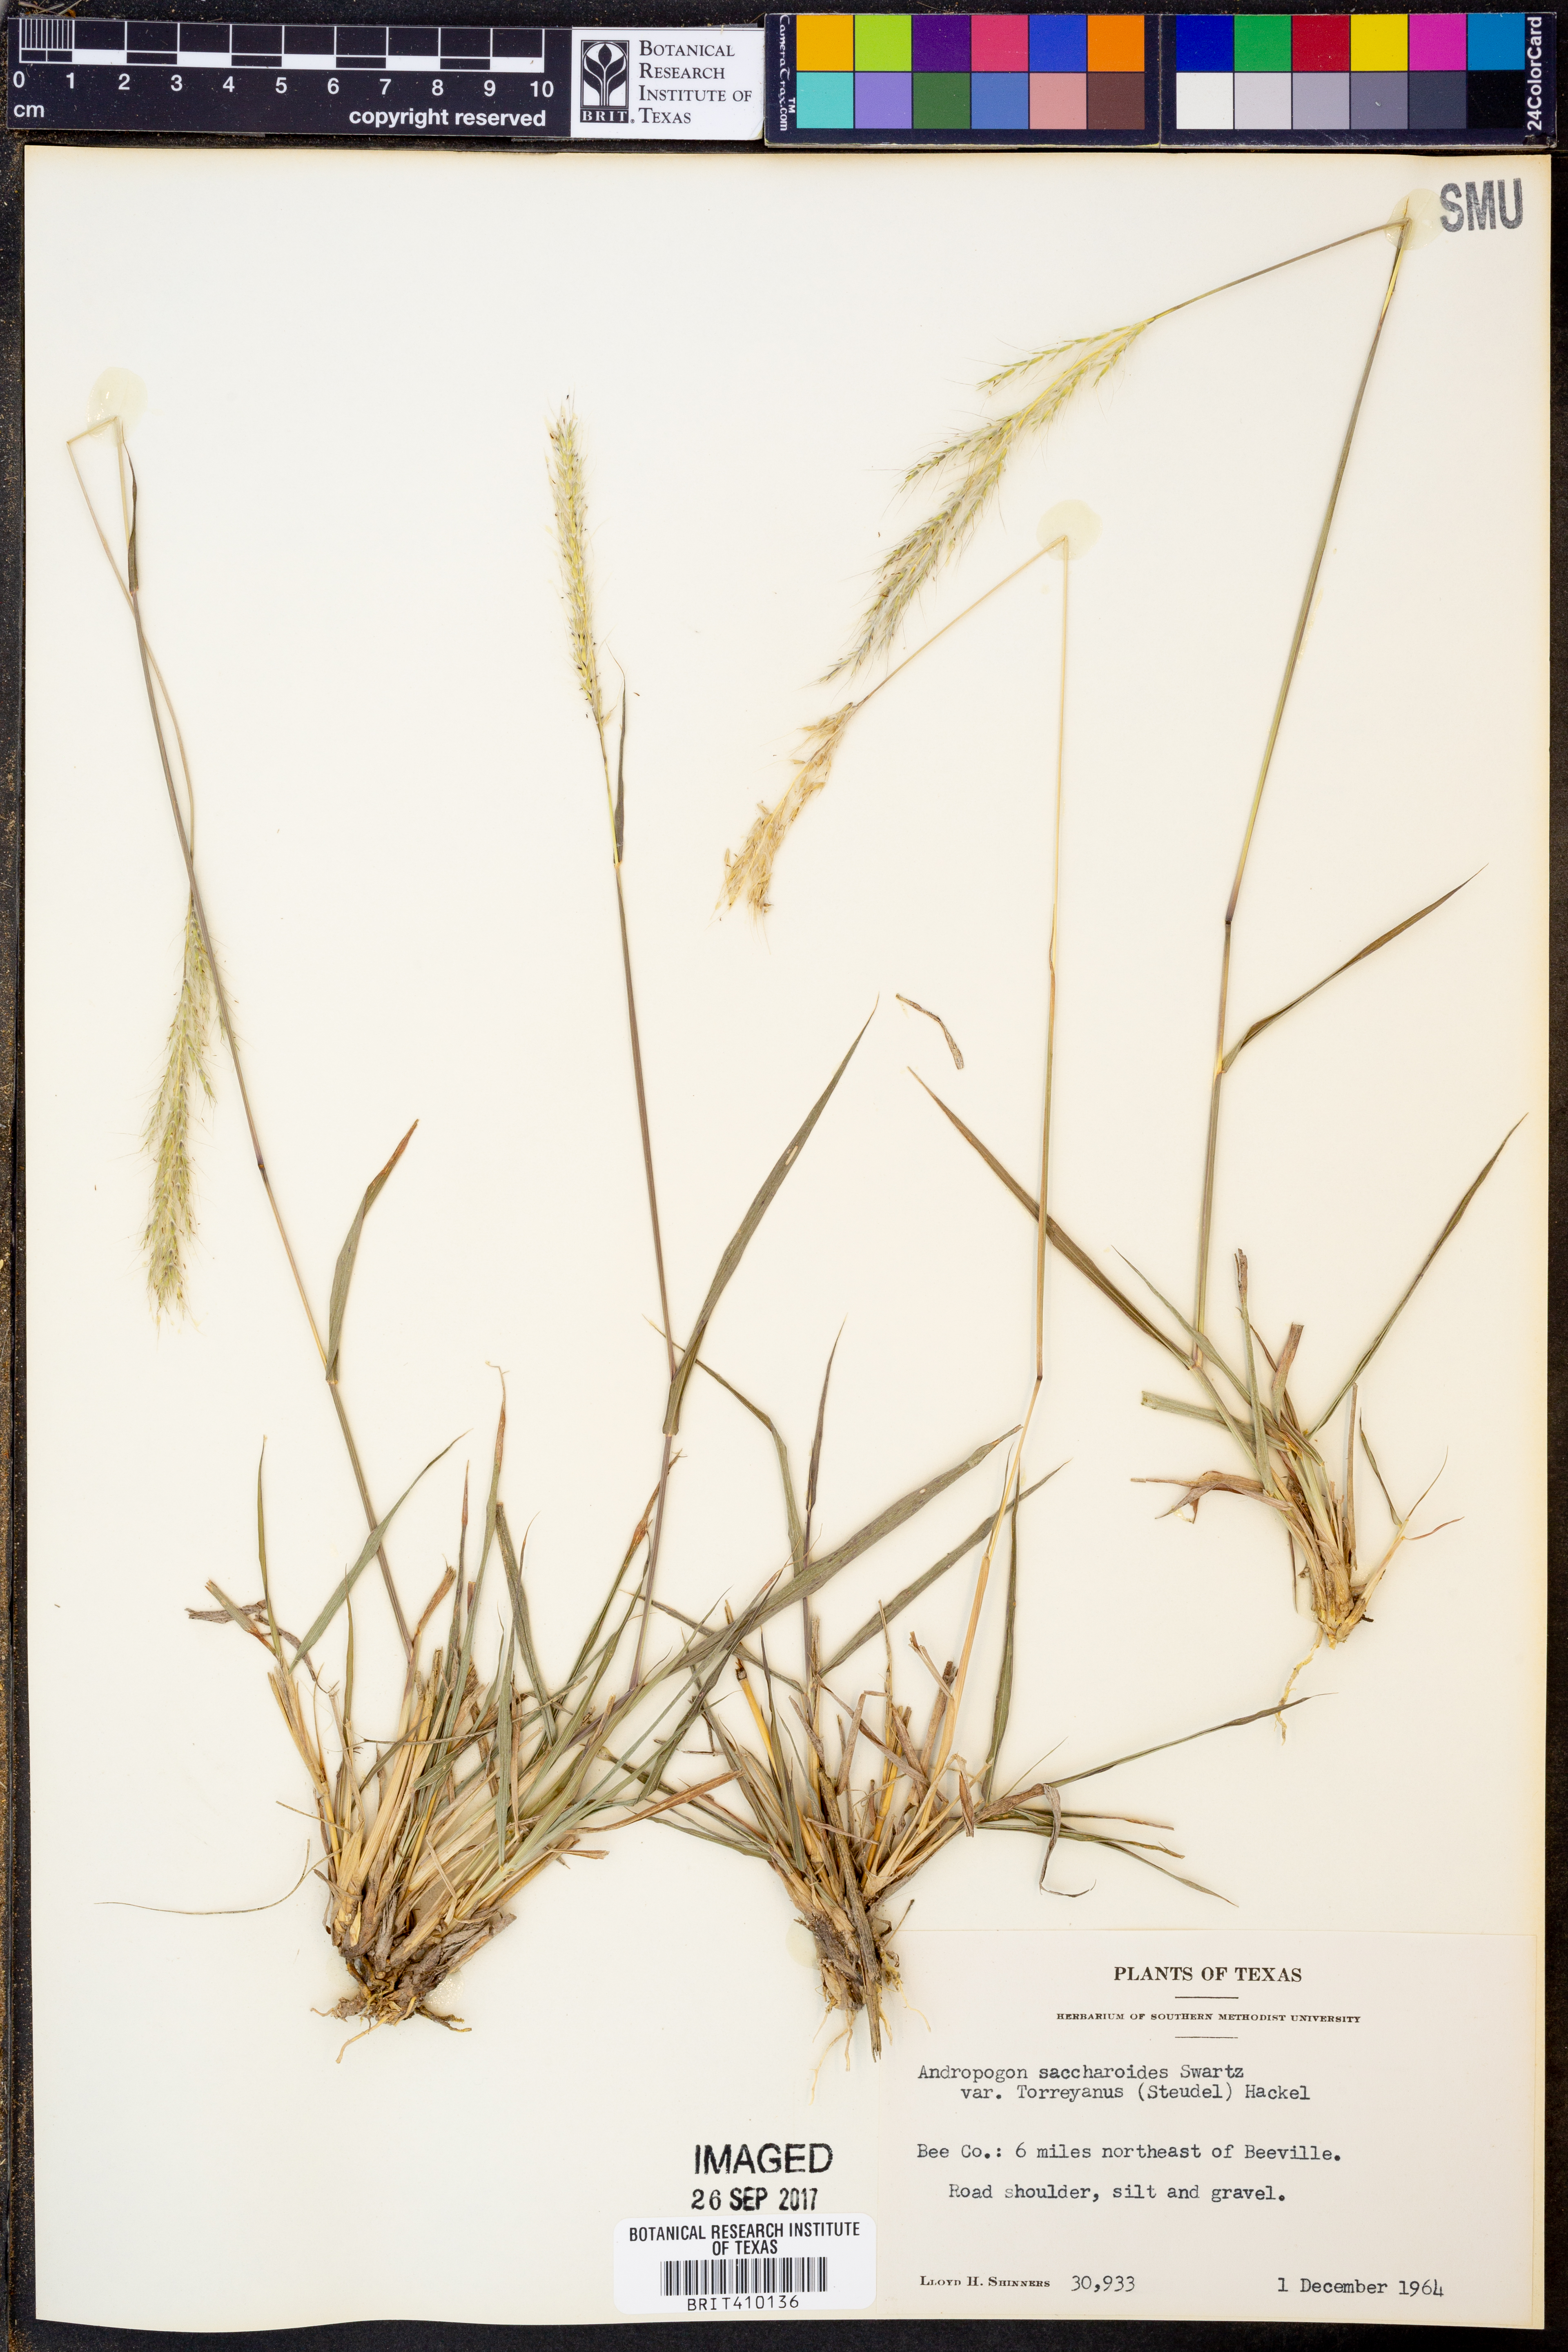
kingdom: Plantae
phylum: Tracheophyta
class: Liliopsida
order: Poales
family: Poaceae
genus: Bothriochloa
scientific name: Bothriochloa torreyana
